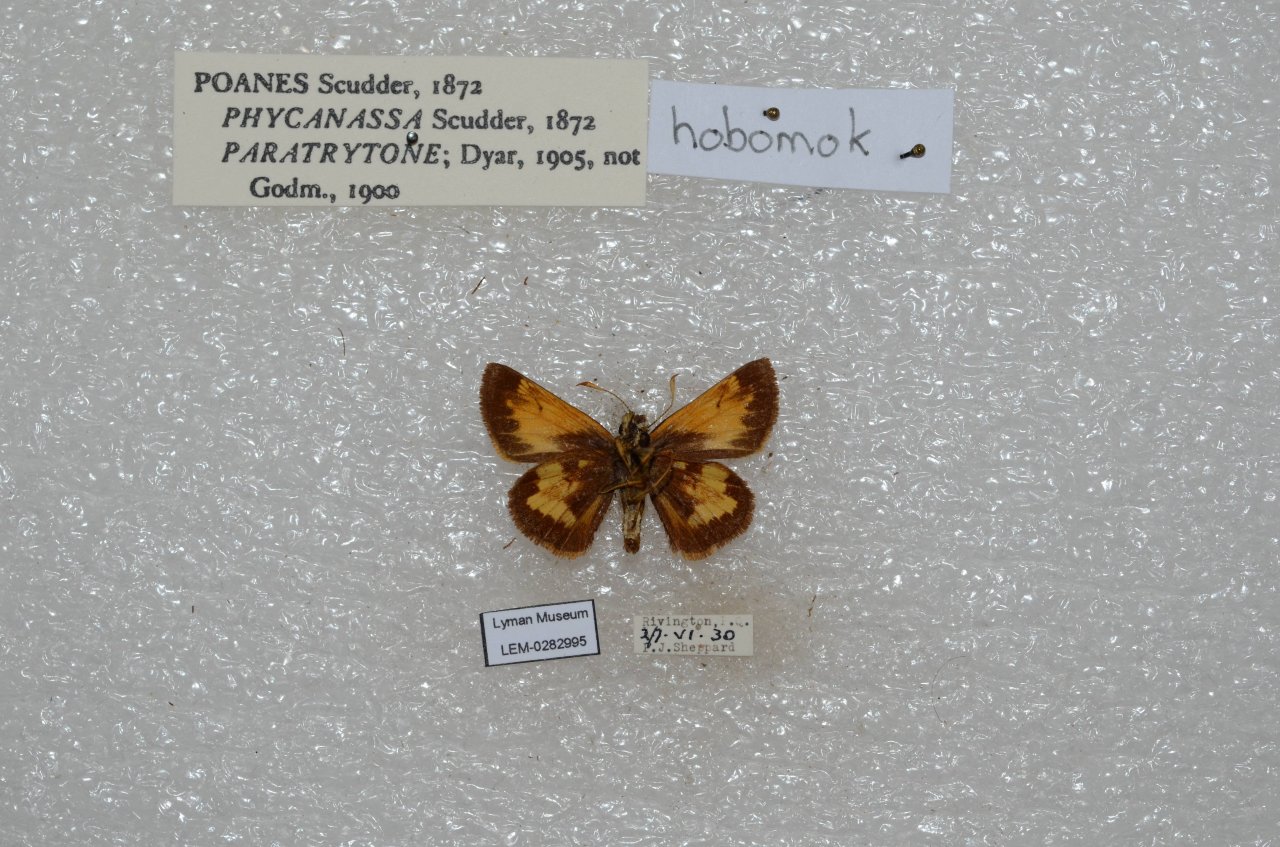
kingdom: Animalia
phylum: Arthropoda
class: Insecta
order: Lepidoptera
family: Hesperiidae
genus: Lon
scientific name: Lon hobomok
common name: Hobomok Skipper
